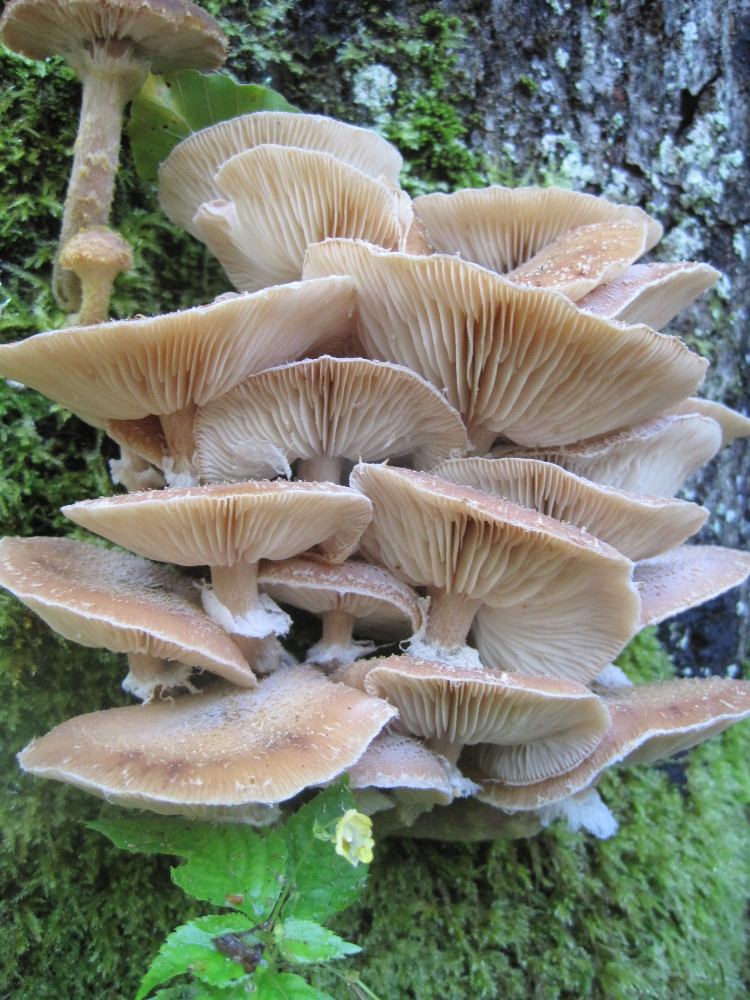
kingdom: Fungi
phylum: Basidiomycota
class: Agaricomycetes
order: Agaricales
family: Physalacriaceae
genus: Armillaria
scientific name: Armillaria lutea
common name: køllestokket honningsvamp
